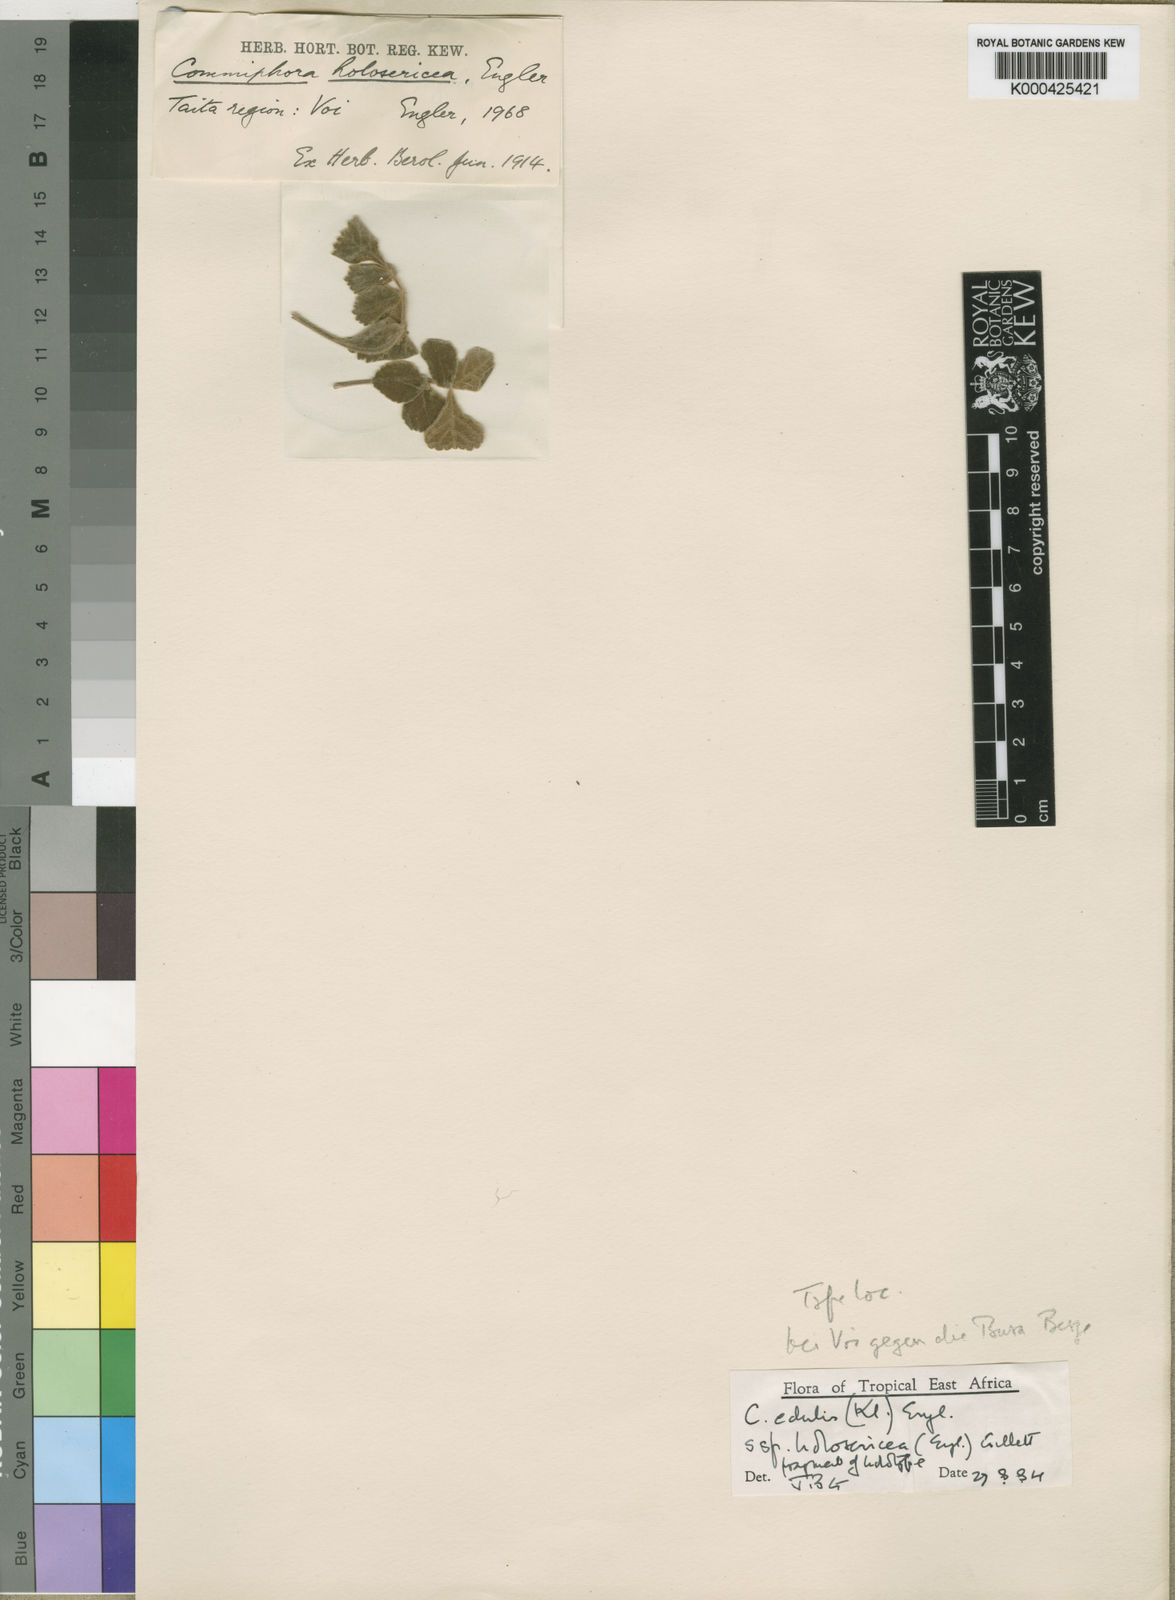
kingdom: Plantae
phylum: Tracheophyta
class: Magnoliopsida
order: Sapindales
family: Burseraceae
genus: Commiphora
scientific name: Commiphora edulis
